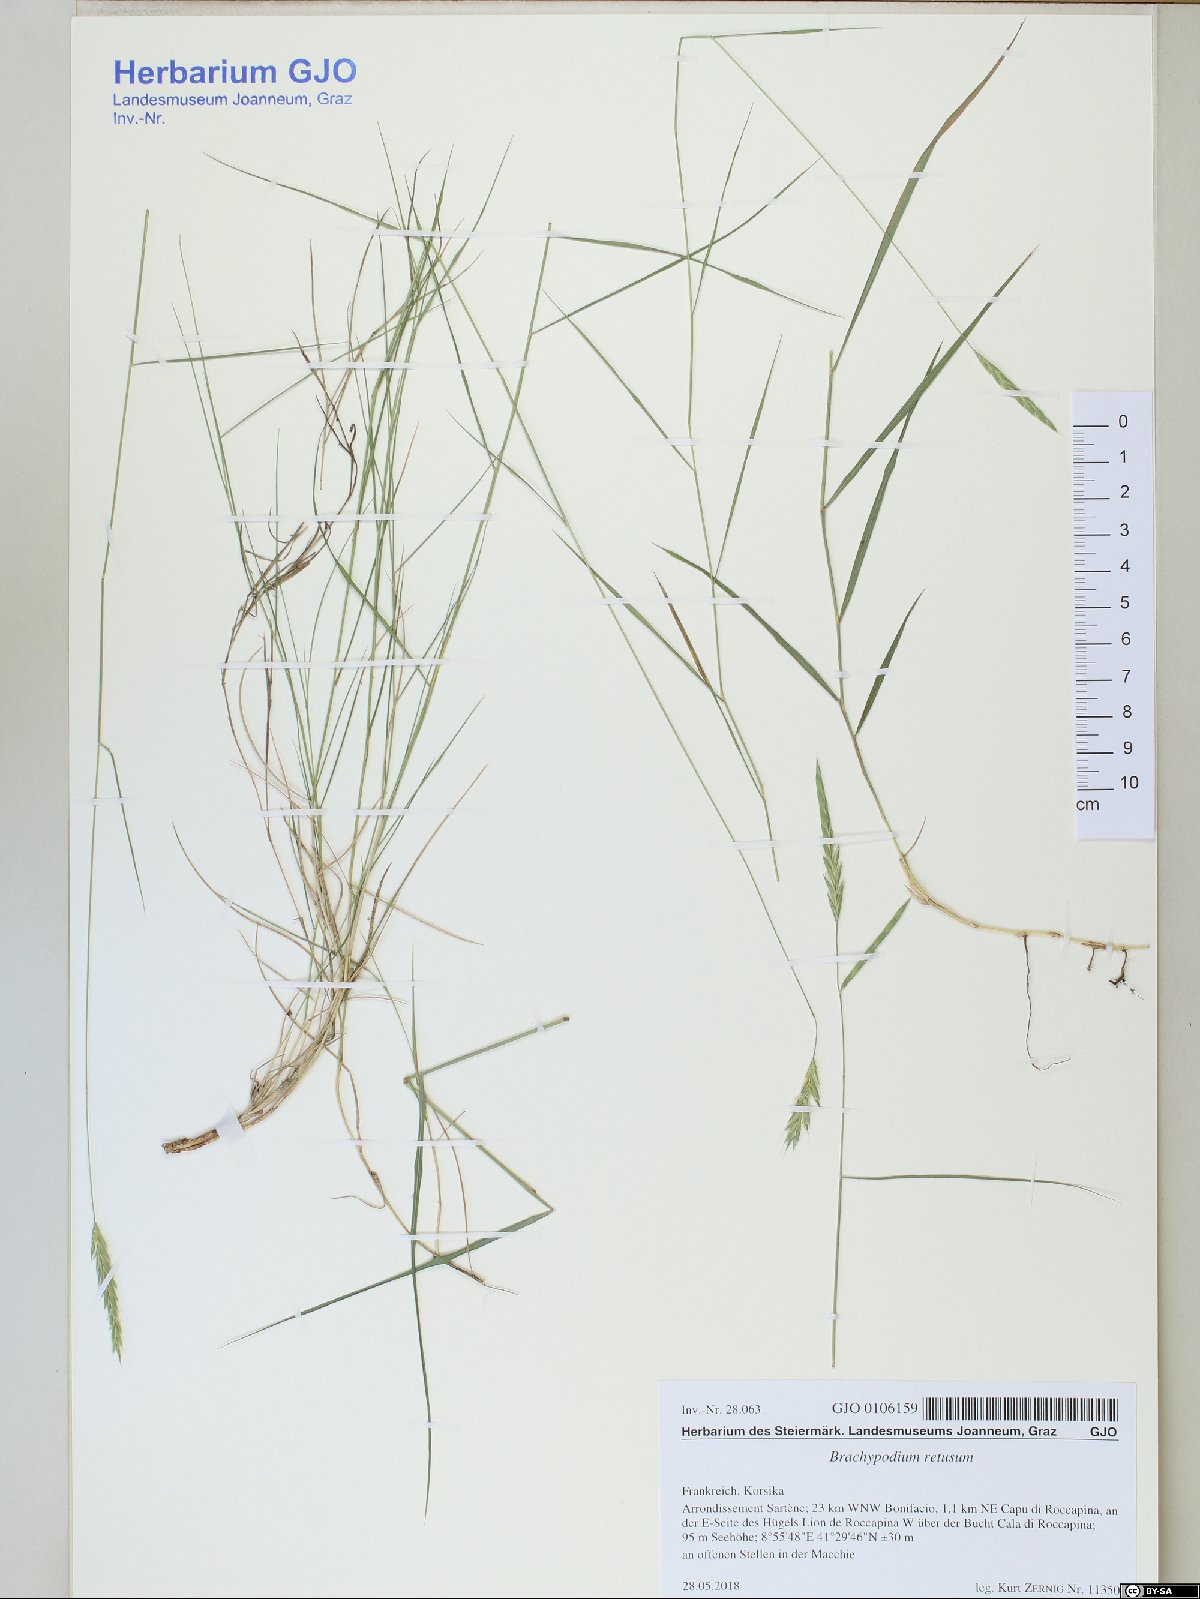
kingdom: Plantae
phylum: Tracheophyta
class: Liliopsida
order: Poales
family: Poaceae
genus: Brachypodium
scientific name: Brachypodium retusum
